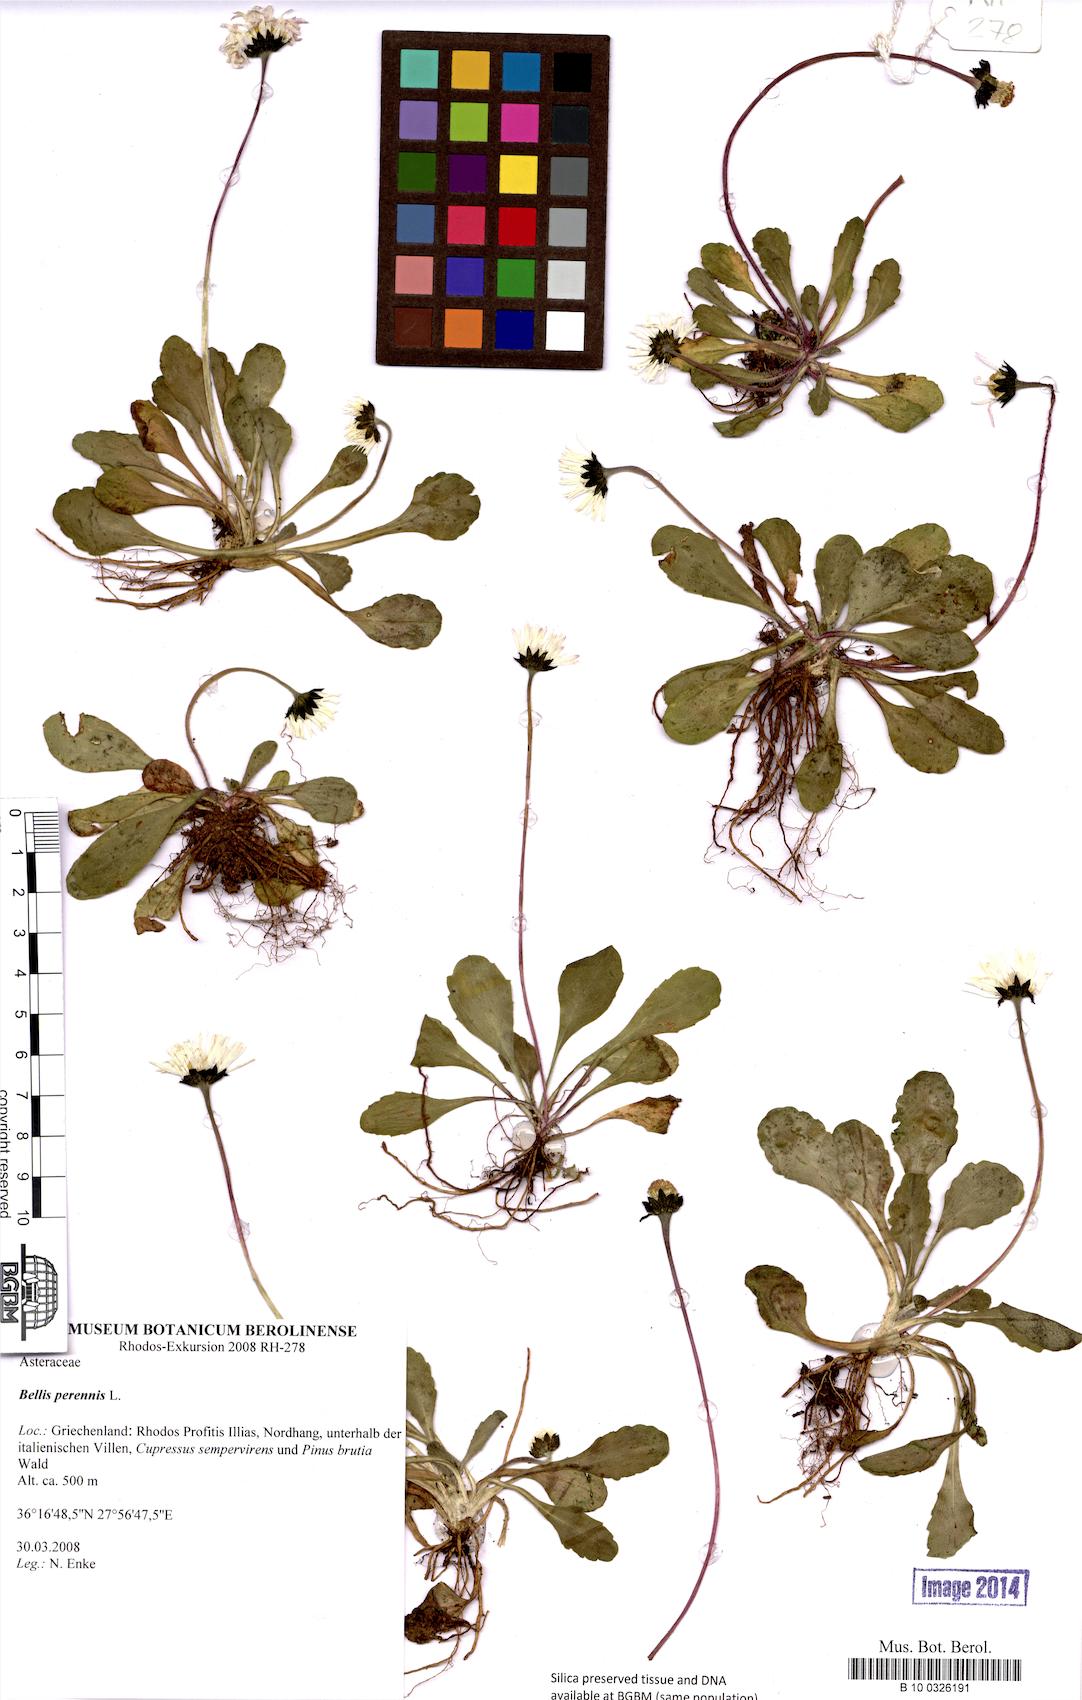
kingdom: Plantae
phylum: Tracheophyta
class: Magnoliopsida
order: Asterales
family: Asteraceae
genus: Bellis
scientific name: Bellis perennis
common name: Lawndaisy
